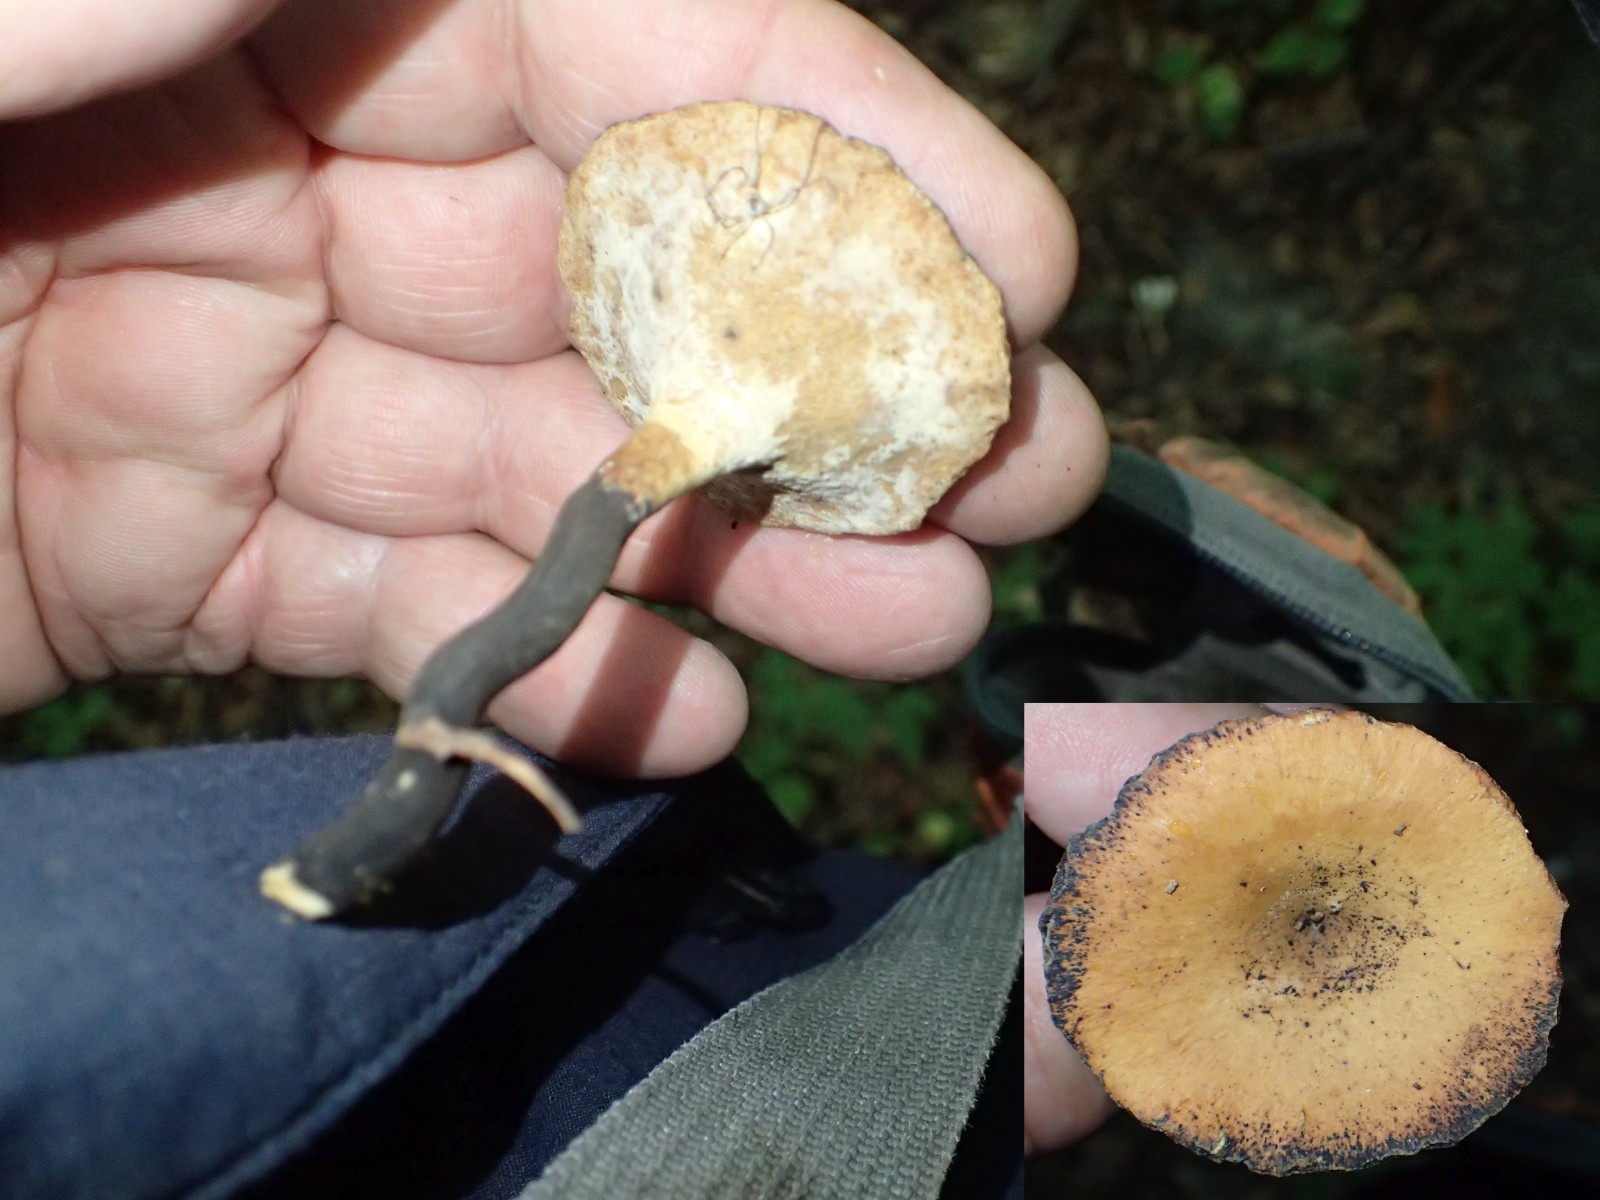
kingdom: Fungi
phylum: Basidiomycota
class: Agaricomycetes
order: Polyporales
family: Polyporaceae
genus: Cerioporus
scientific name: Cerioporus varius
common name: foranderlig stilkporesvamp
